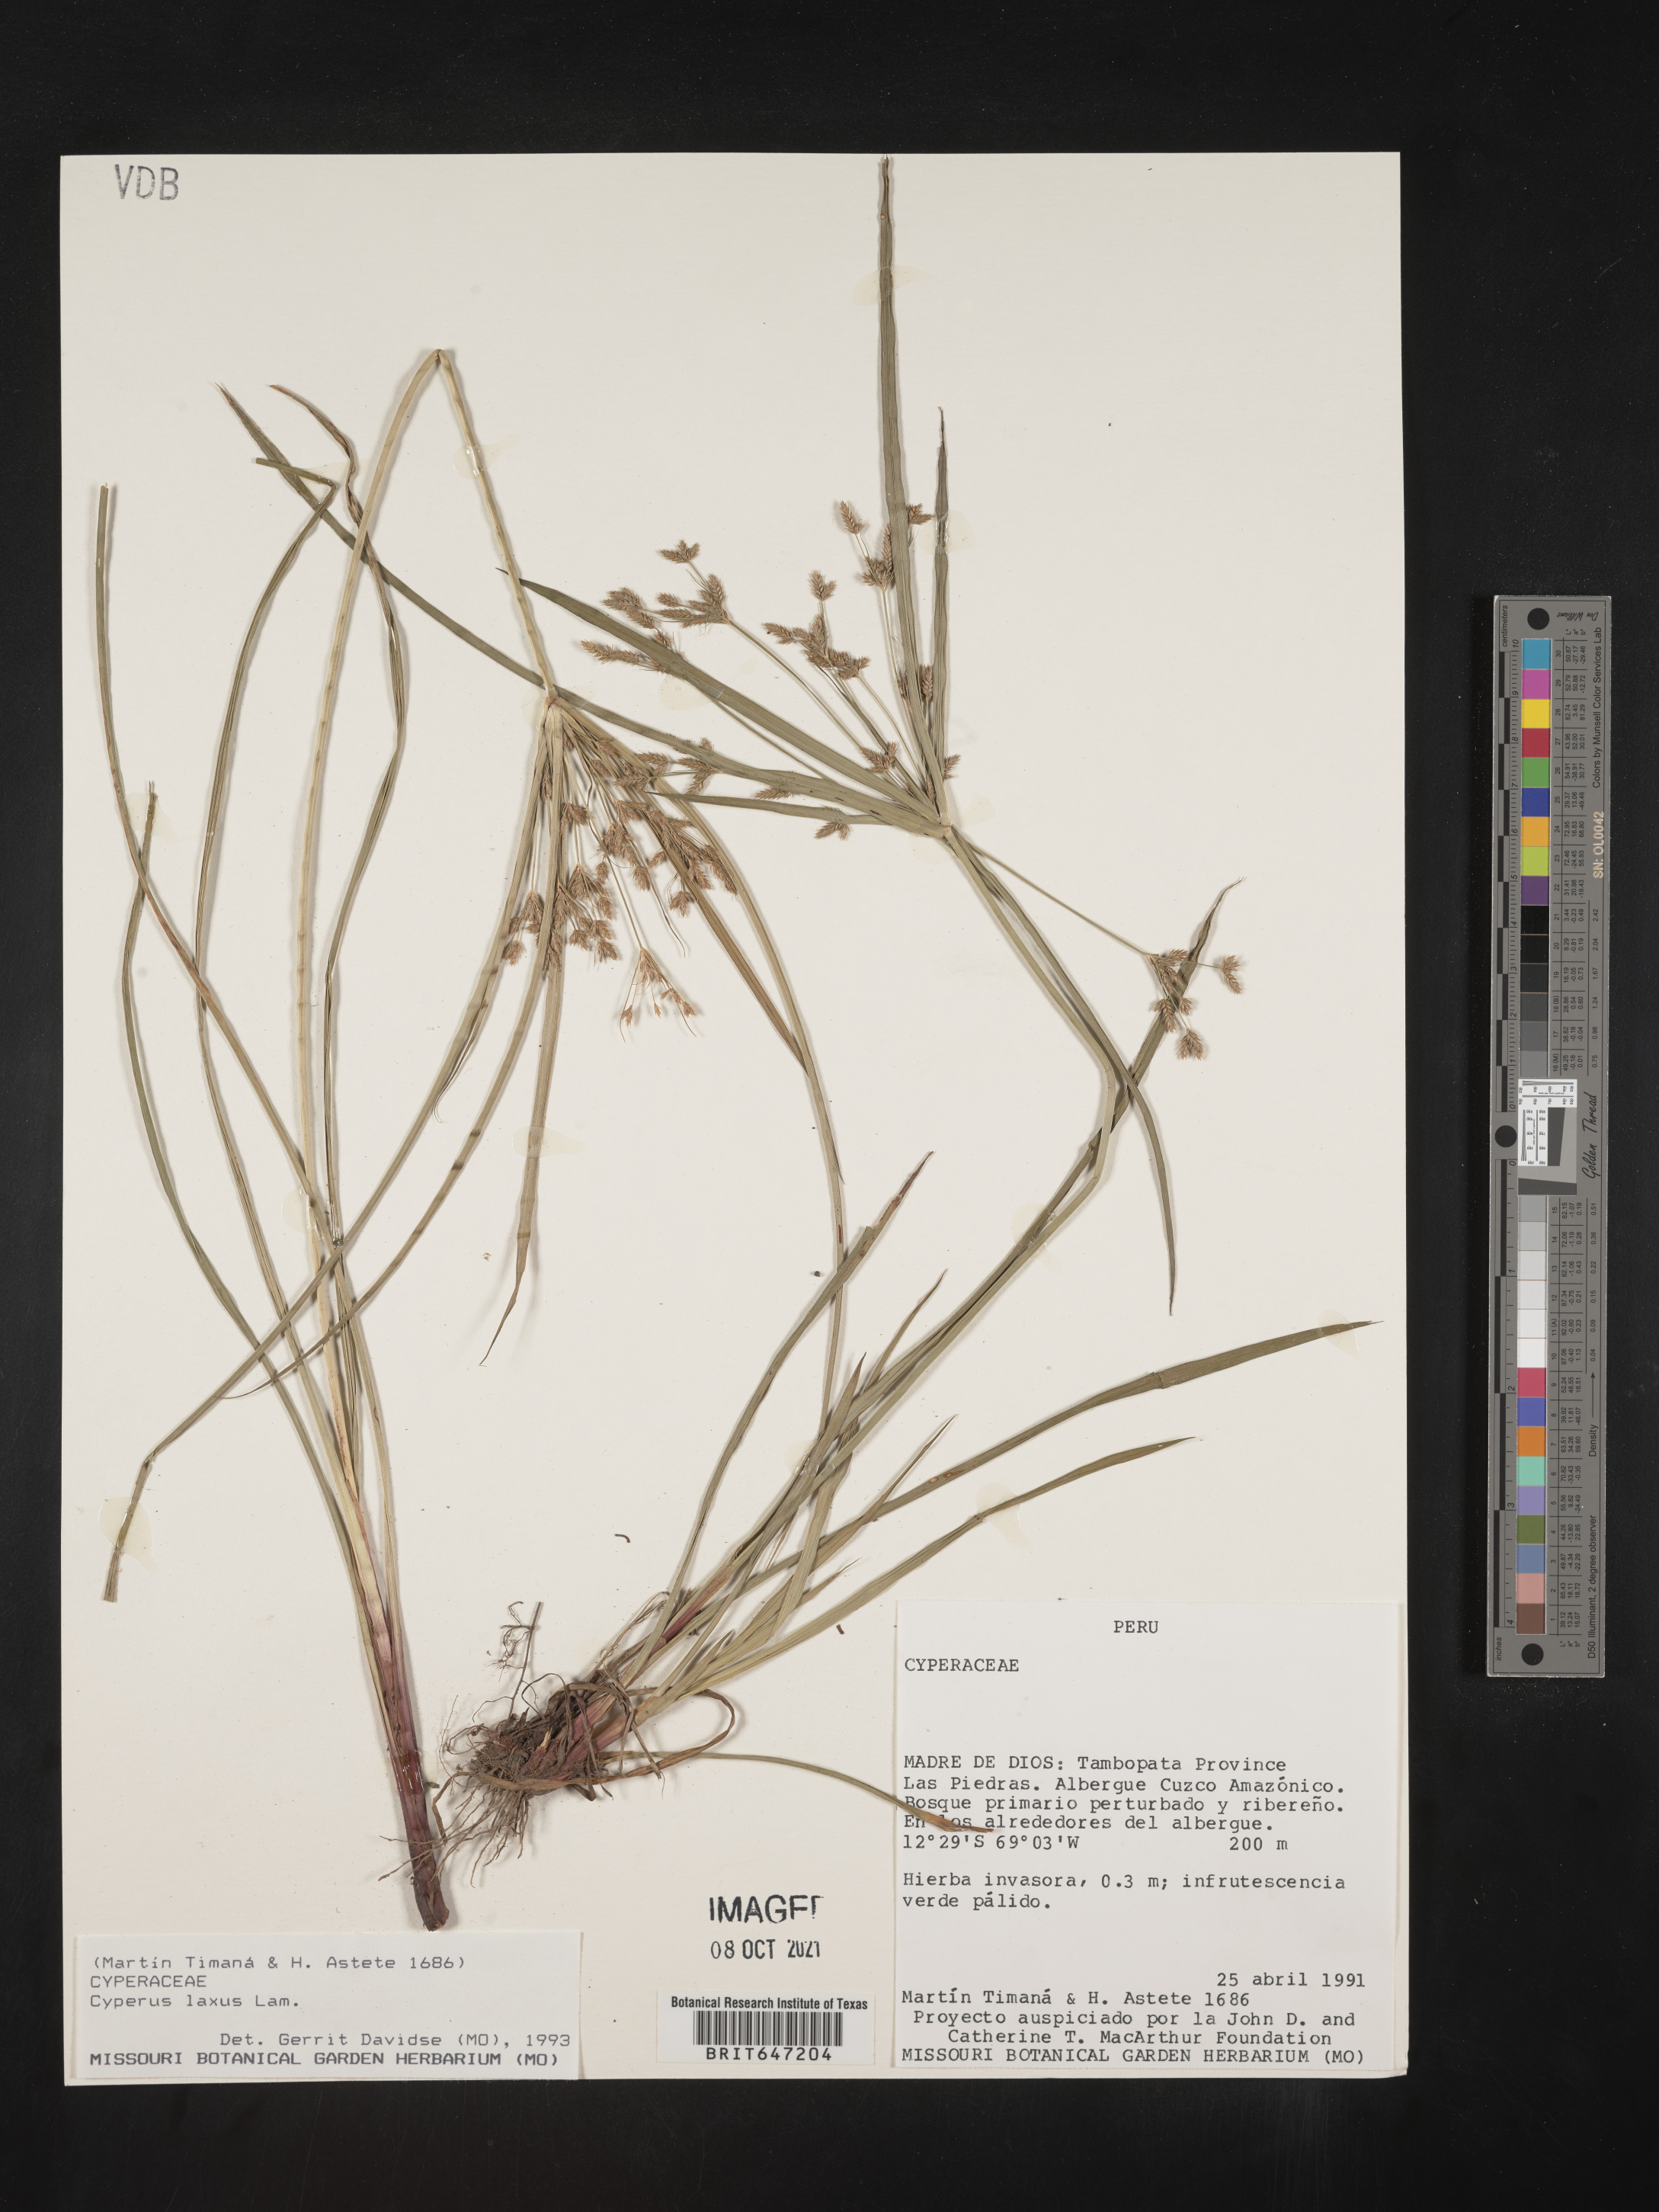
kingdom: Plantae
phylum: Tracheophyta
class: Liliopsida
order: Poales
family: Cyperaceae
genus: Cyperus
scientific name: Cyperus laxus
